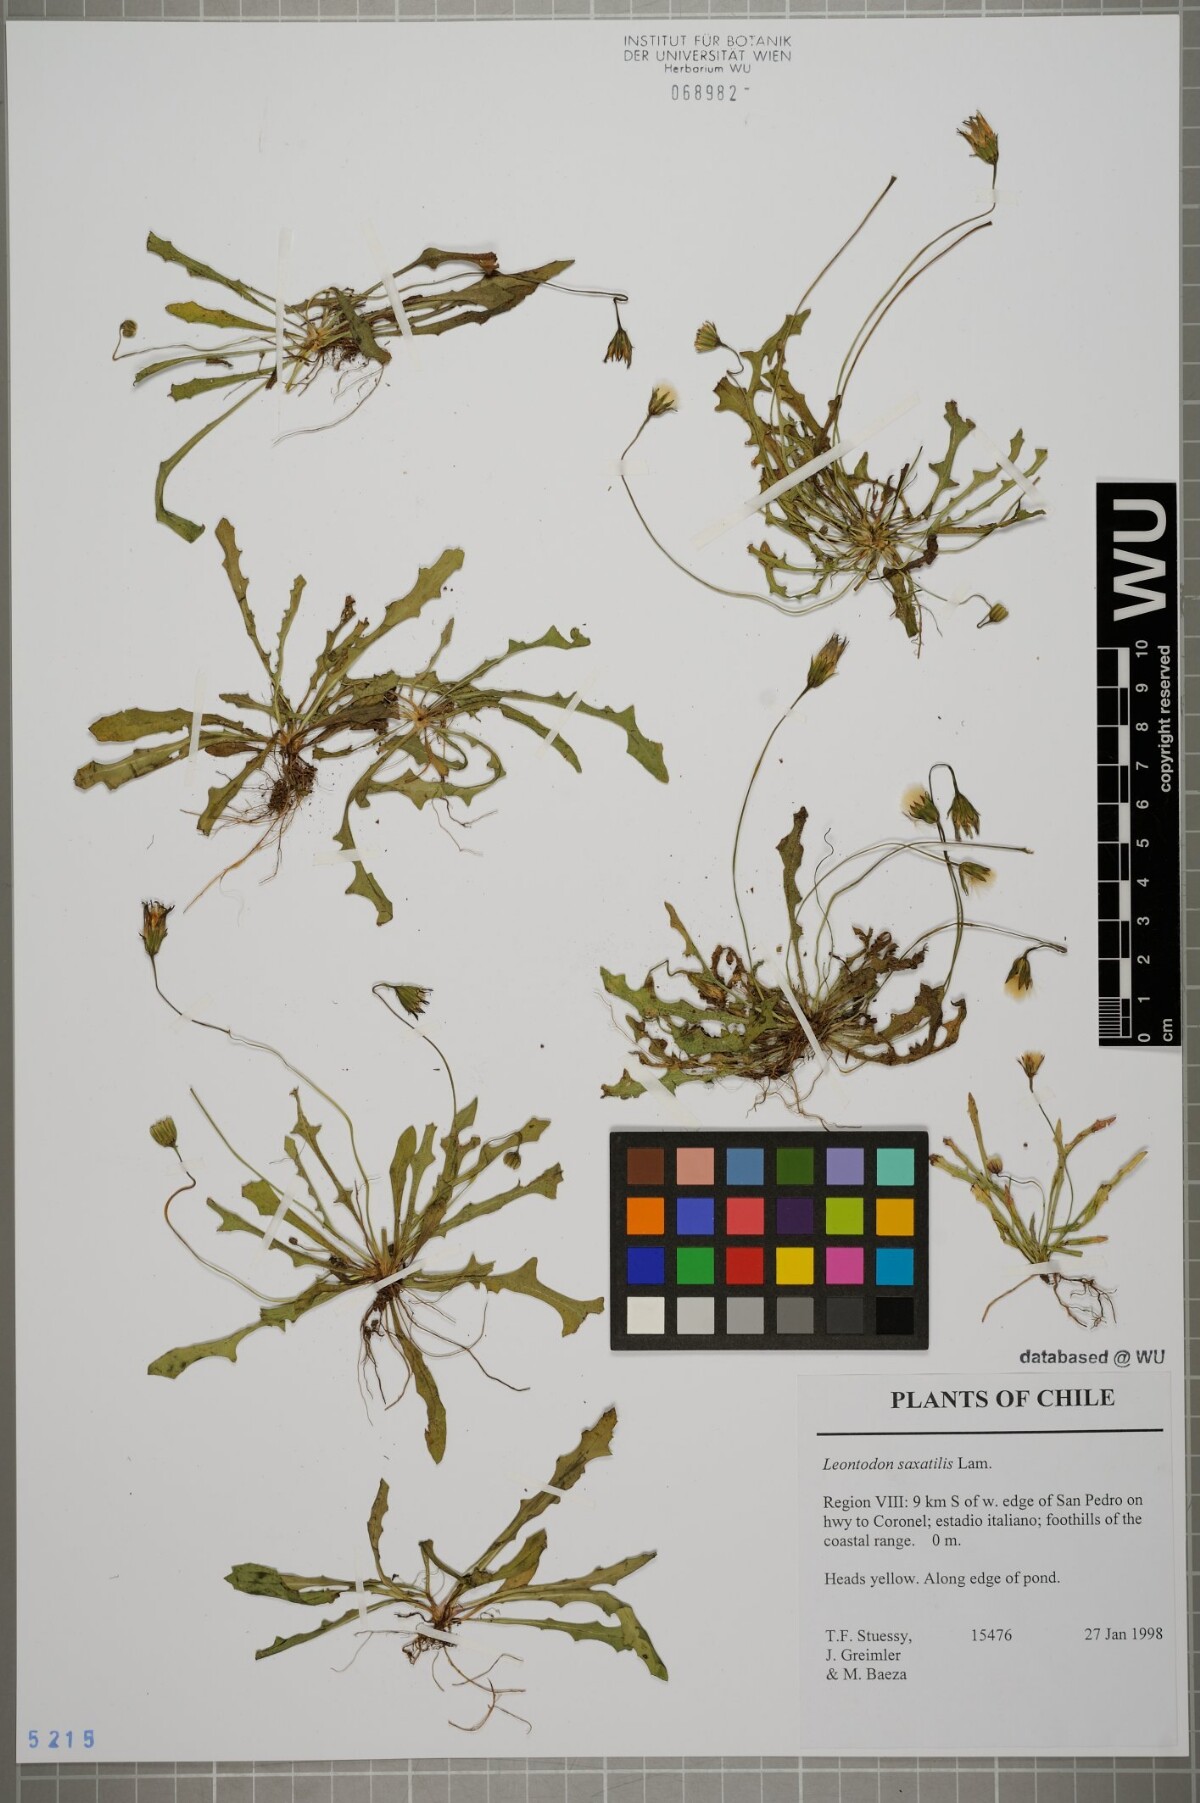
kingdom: Plantae
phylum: Tracheophyta
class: Magnoliopsida
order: Asterales
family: Asteraceae
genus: Thrincia
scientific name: Thrincia saxatilis
